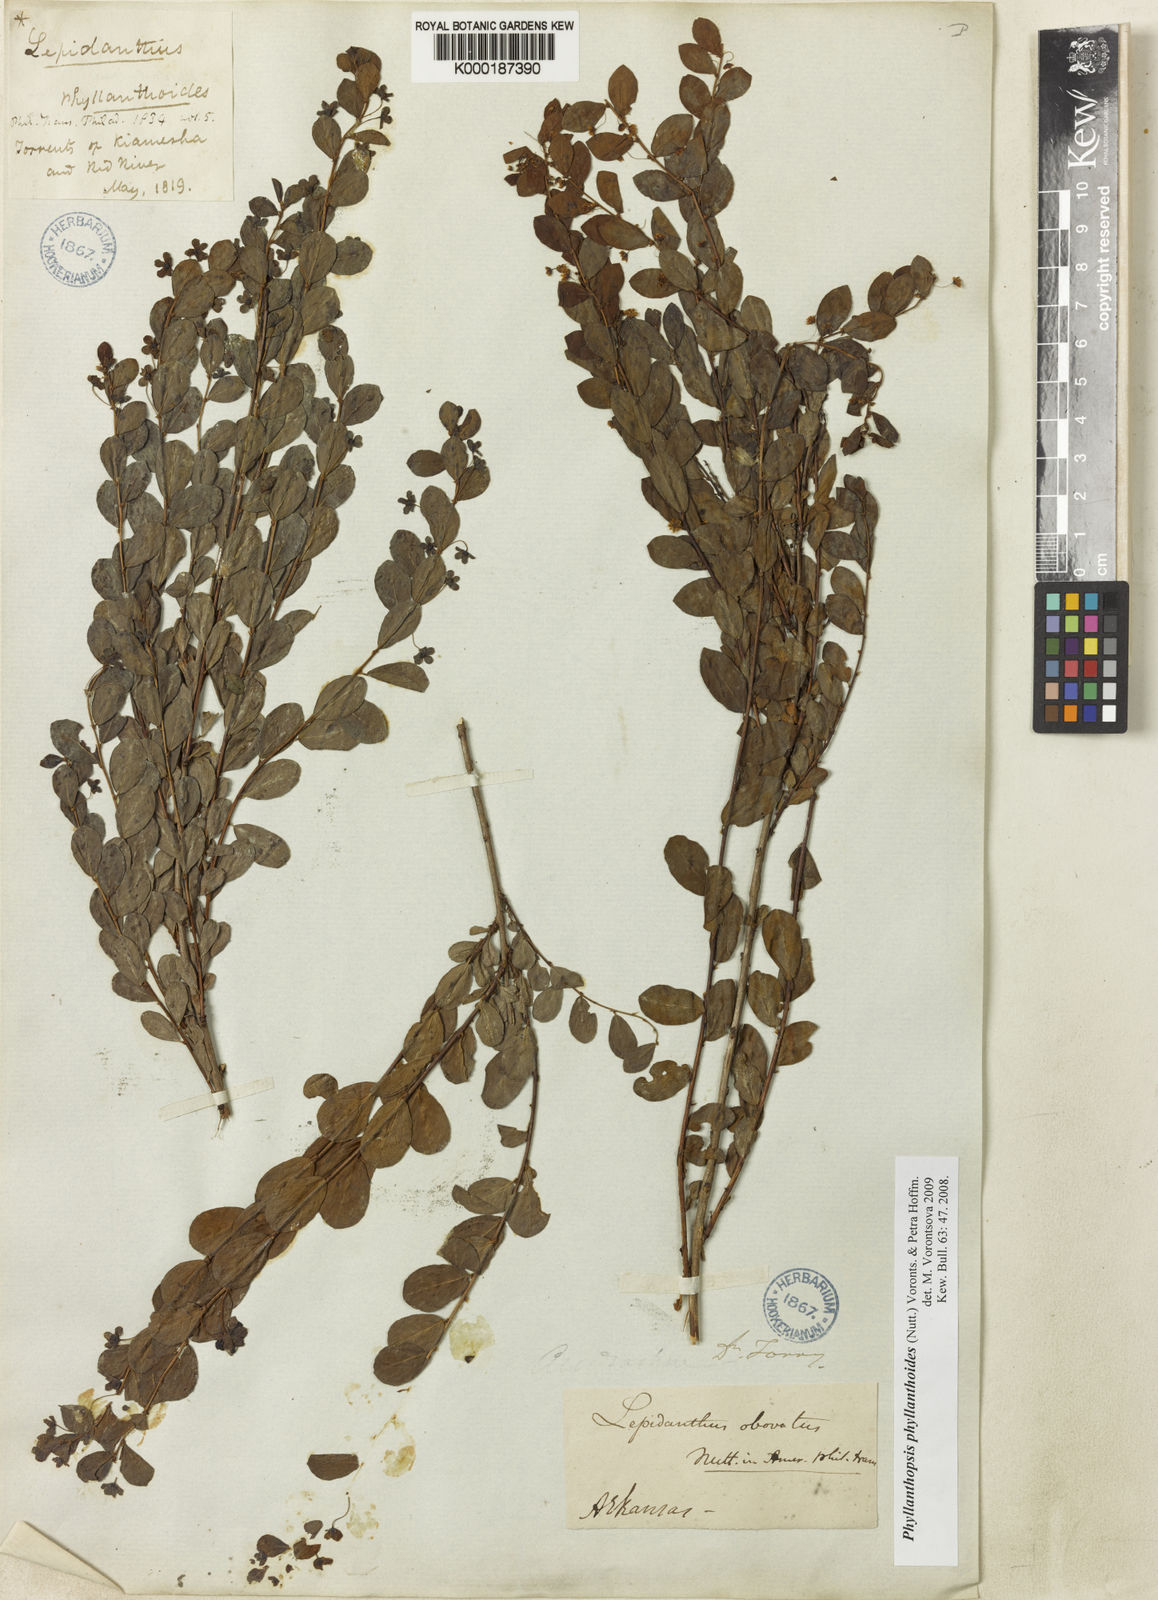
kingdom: Plantae
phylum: Tracheophyta
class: Magnoliopsida
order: Malpighiales
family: Phyllanthaceae
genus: Phyllanthopsis
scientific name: Phyllanthopsis phyllanthoides
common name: Missouri maidenbush
